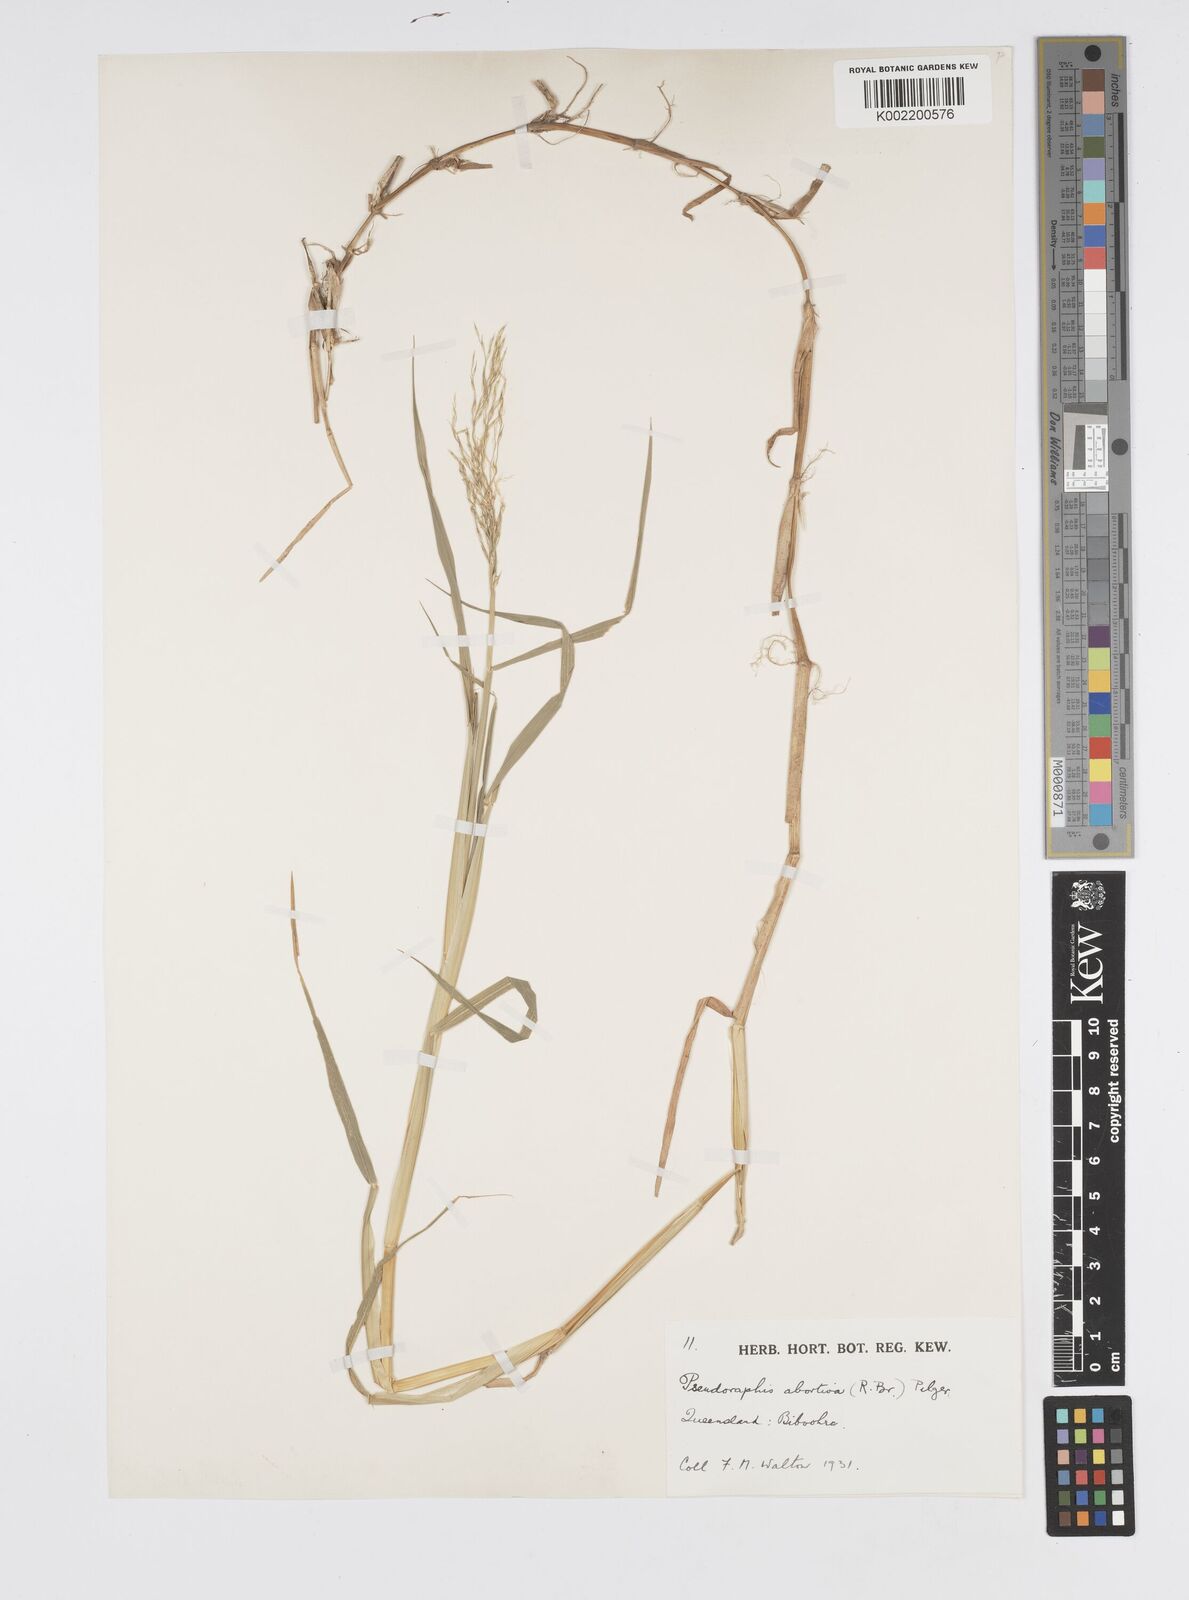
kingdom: Plantae
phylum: Tracheophyta
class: Liliopsida
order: Poales
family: Poaceae
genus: Pseudoraphis
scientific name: Pseudoraphis spinescens
